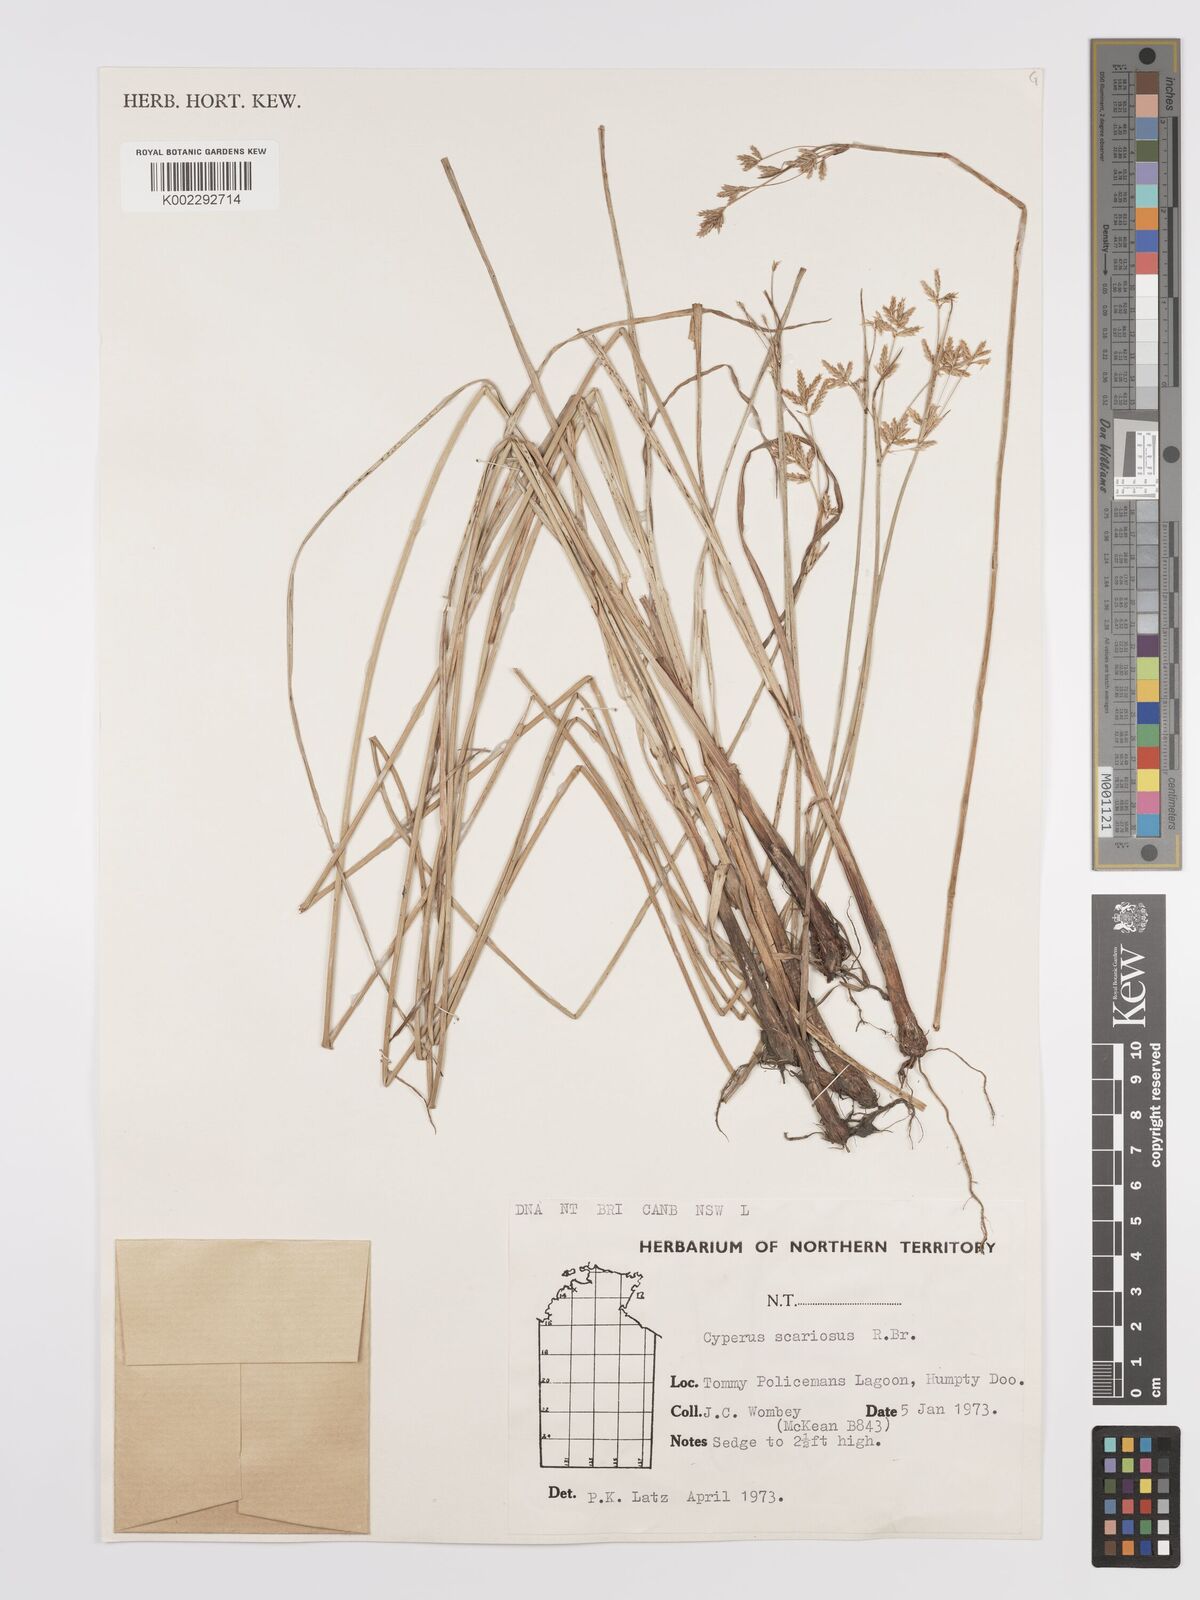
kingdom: Plantae
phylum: Tracheophyta
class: Liliopsida
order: Poales
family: Cyperaceae
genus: Cyperus
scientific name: Cyperus scariosus
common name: Cypriol
